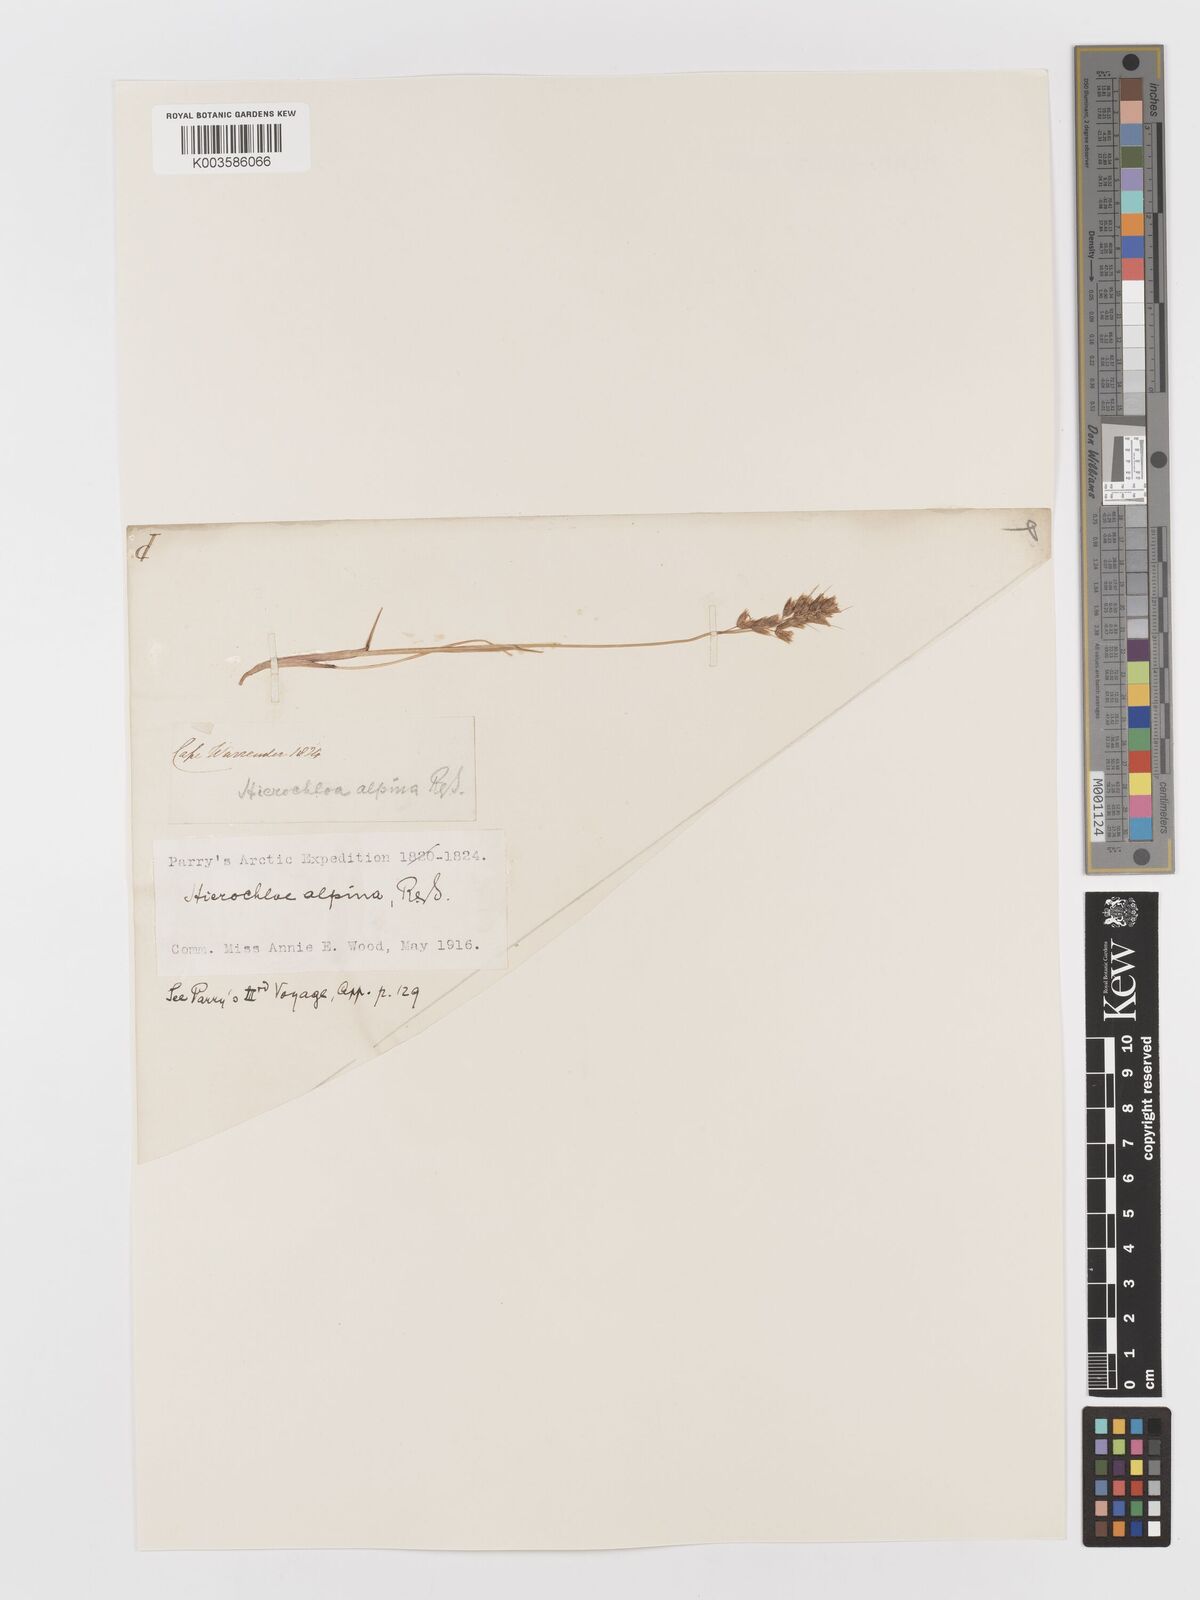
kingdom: Plantae
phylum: Tracheophyta
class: Liliopsida
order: Poales
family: Poaceae
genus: Anthoxanthum
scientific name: Anthoxanthum monticola
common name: Alpine sweetgrass
